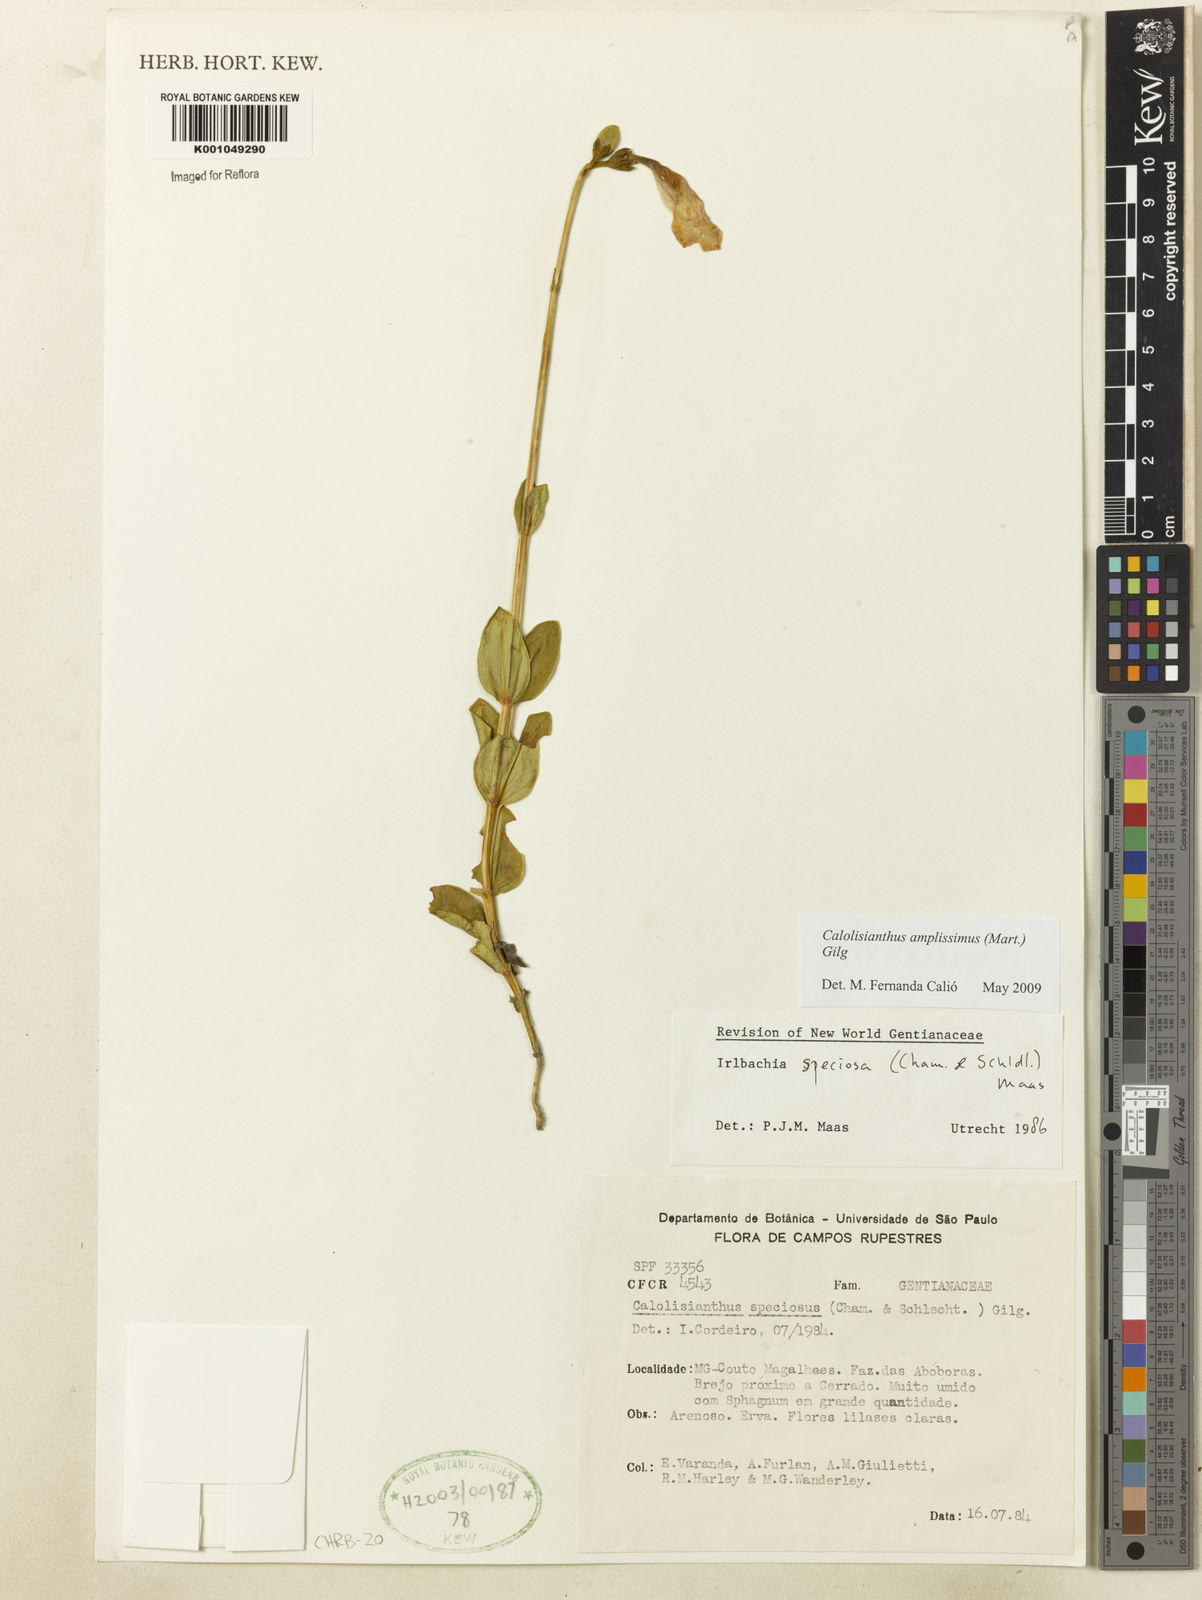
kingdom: Plantae
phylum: Tracheophyta
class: Magnoliopsida
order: Gentianales
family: Gentianaceae
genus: Calolisianthus
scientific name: Calolisianthus amplissimus
